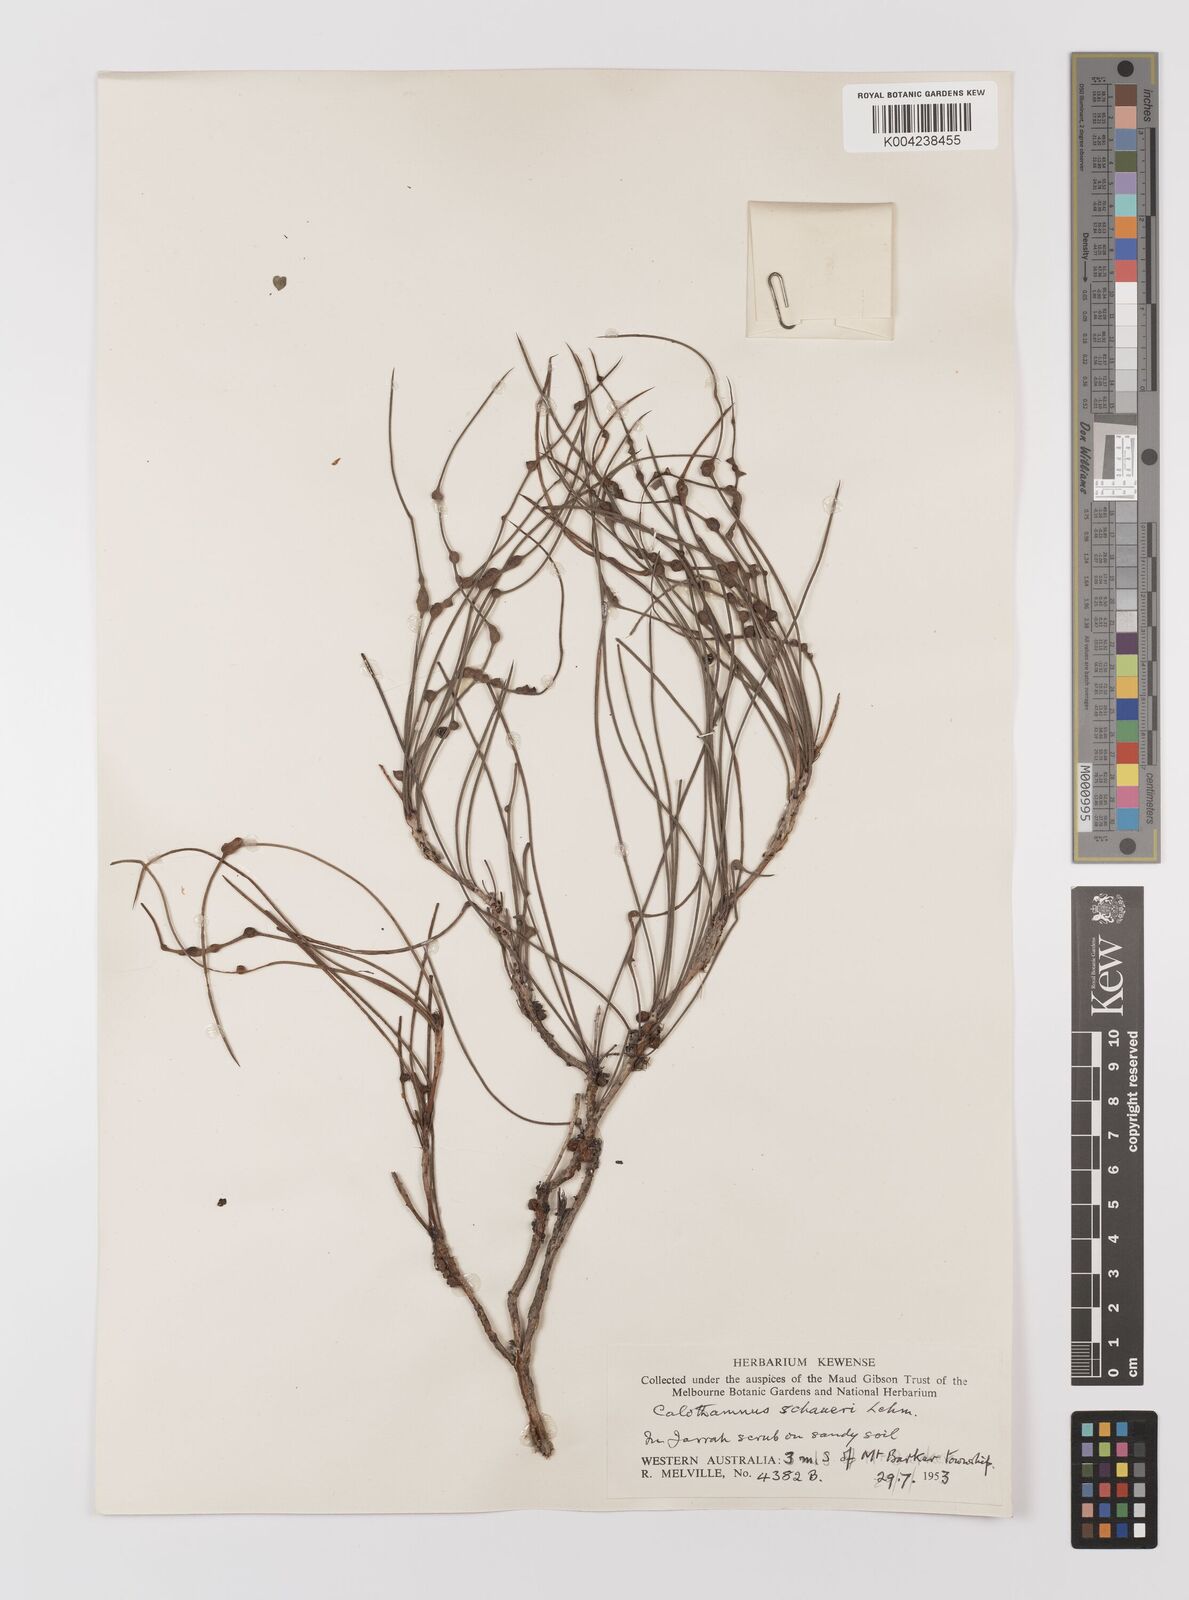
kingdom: Plantae
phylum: Tracheophyta
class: Magnoliopsida
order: Myrtales
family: Myrtaceae
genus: Melaleuca
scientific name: Melaleuca schaueri
